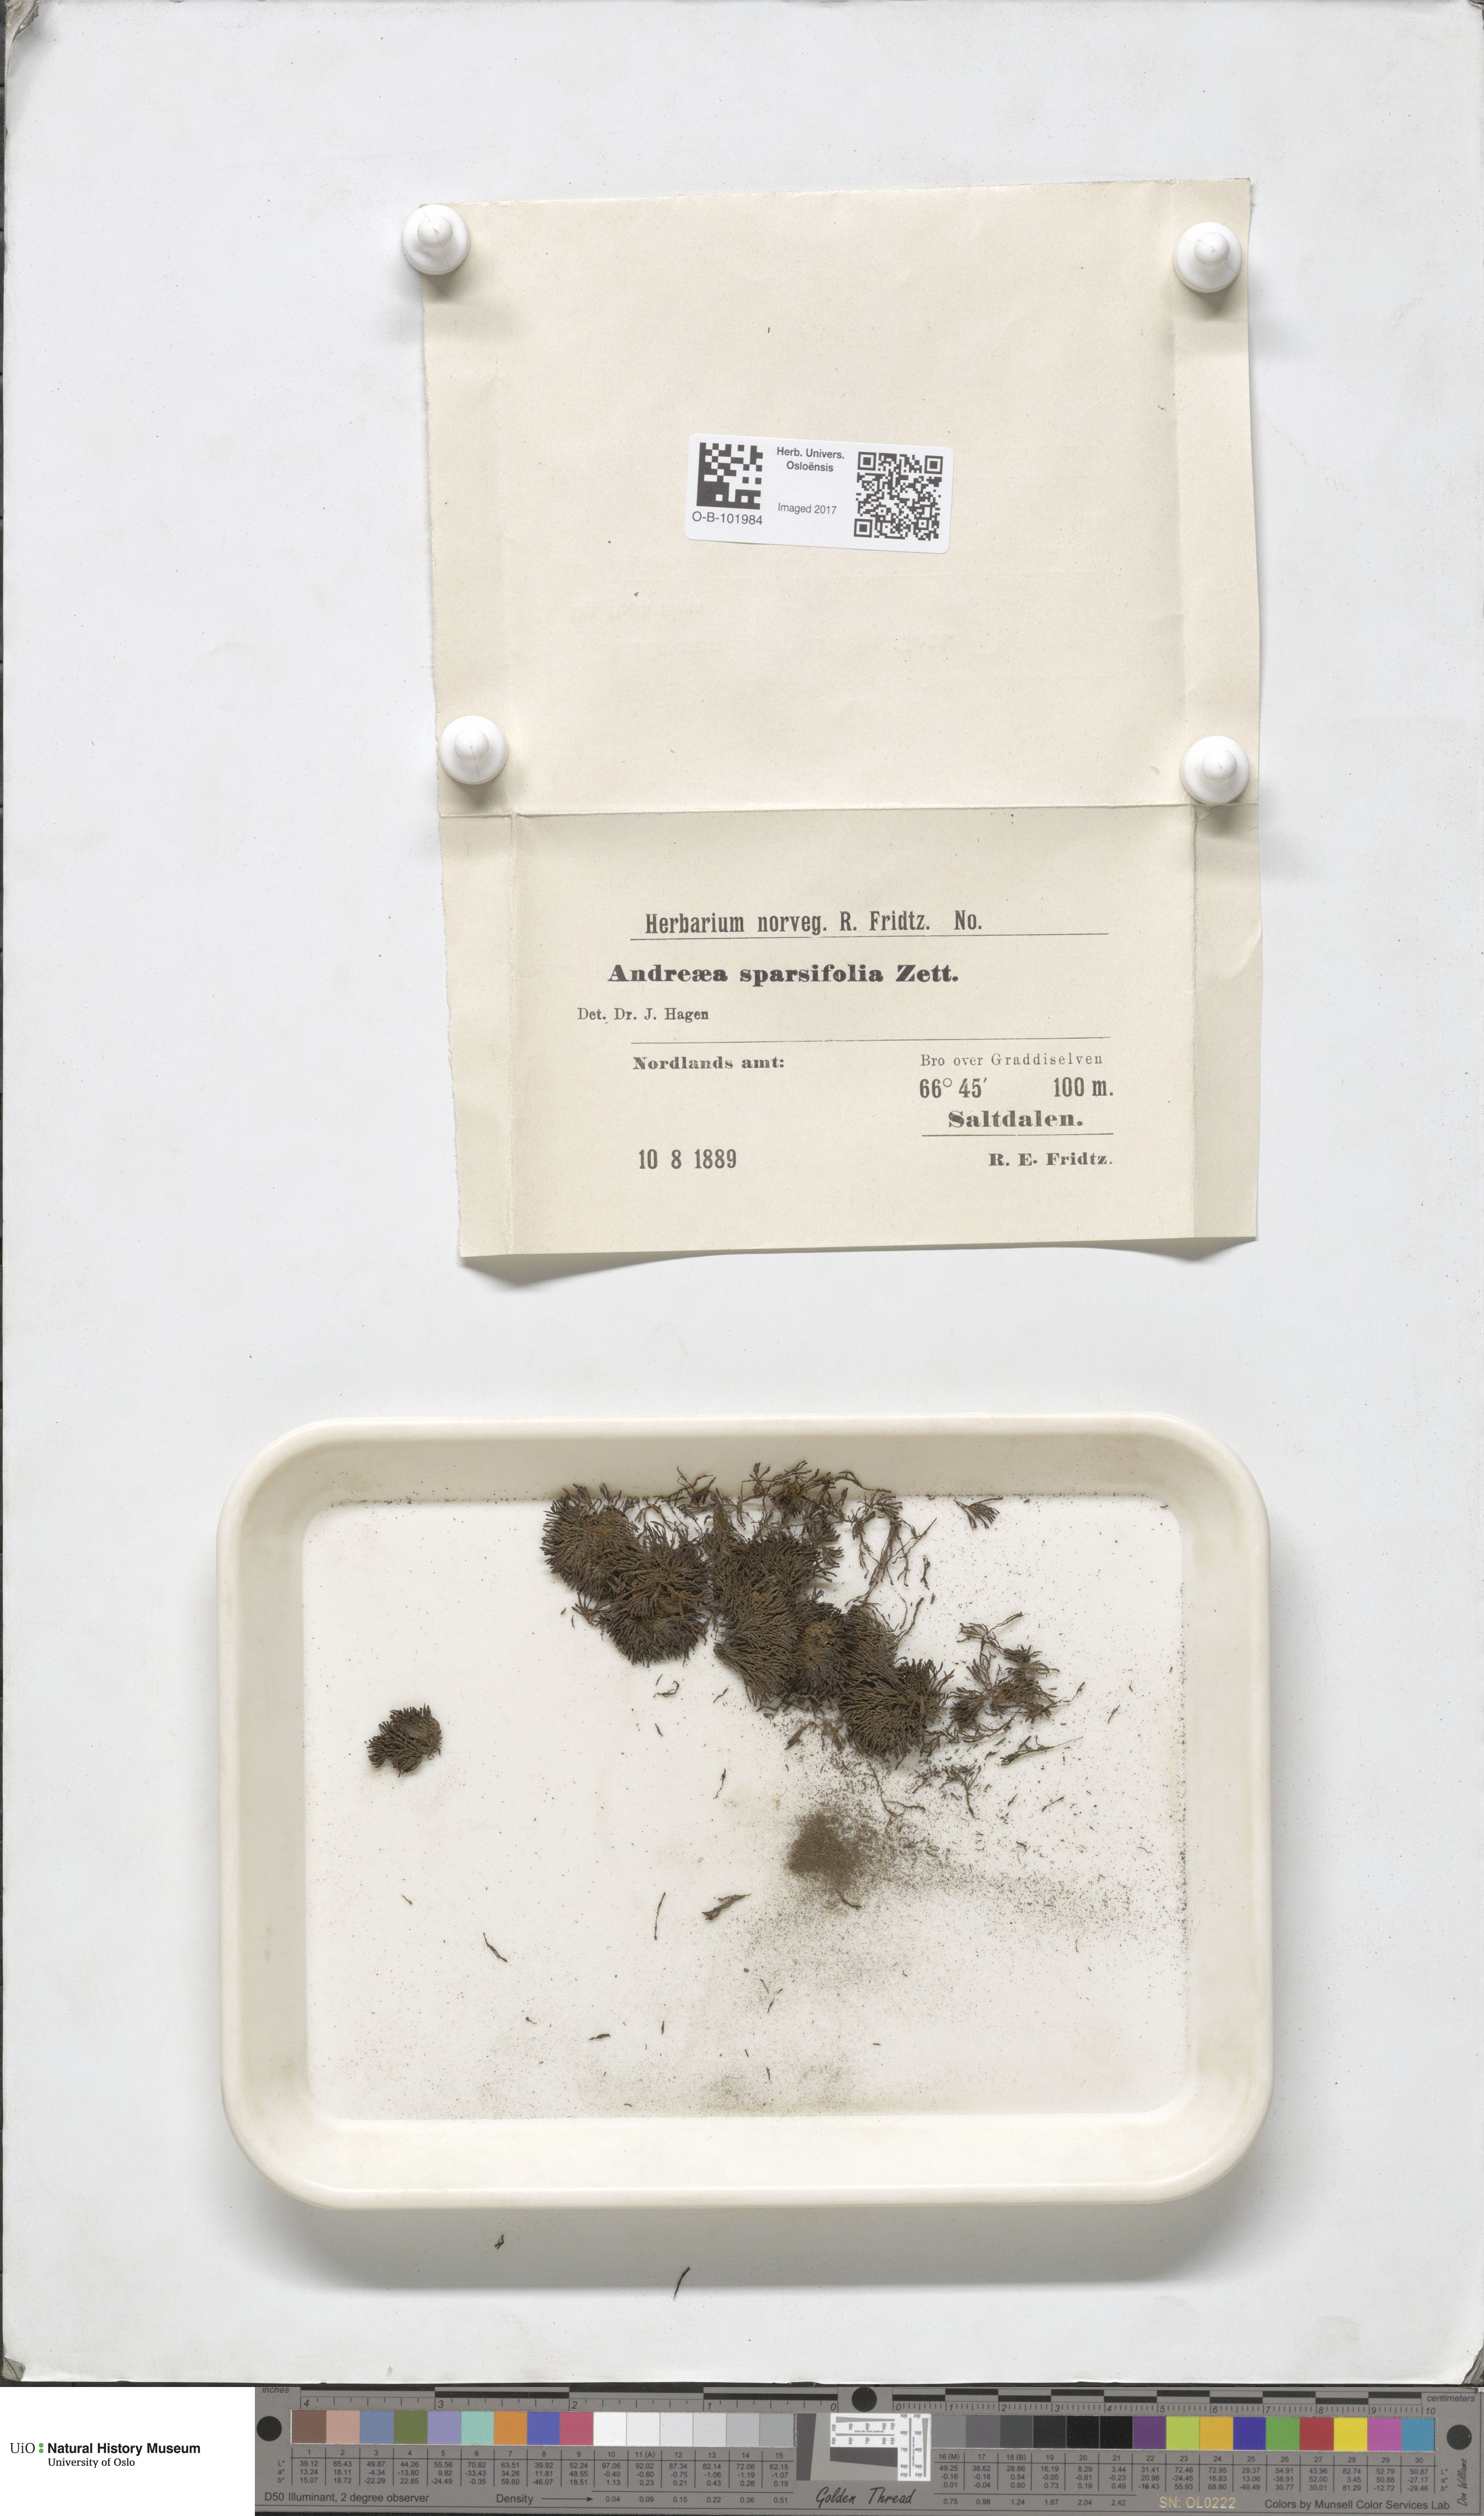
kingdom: Plantae
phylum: Bryophyta
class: Andreaeopsida
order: Andreaeales
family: Andreaeaceae
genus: Andreaea
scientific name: Andreaea rupestris
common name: Black rock moss
